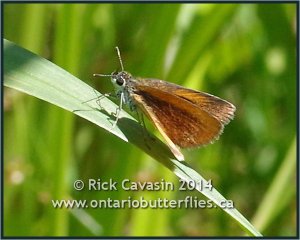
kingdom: Animalia
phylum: Arthropoda
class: Insecta
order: Lepidoptera
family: Hesperiidae
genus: Ancyloxypha
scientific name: Ancyloxypha numitor
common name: Least Skipper
